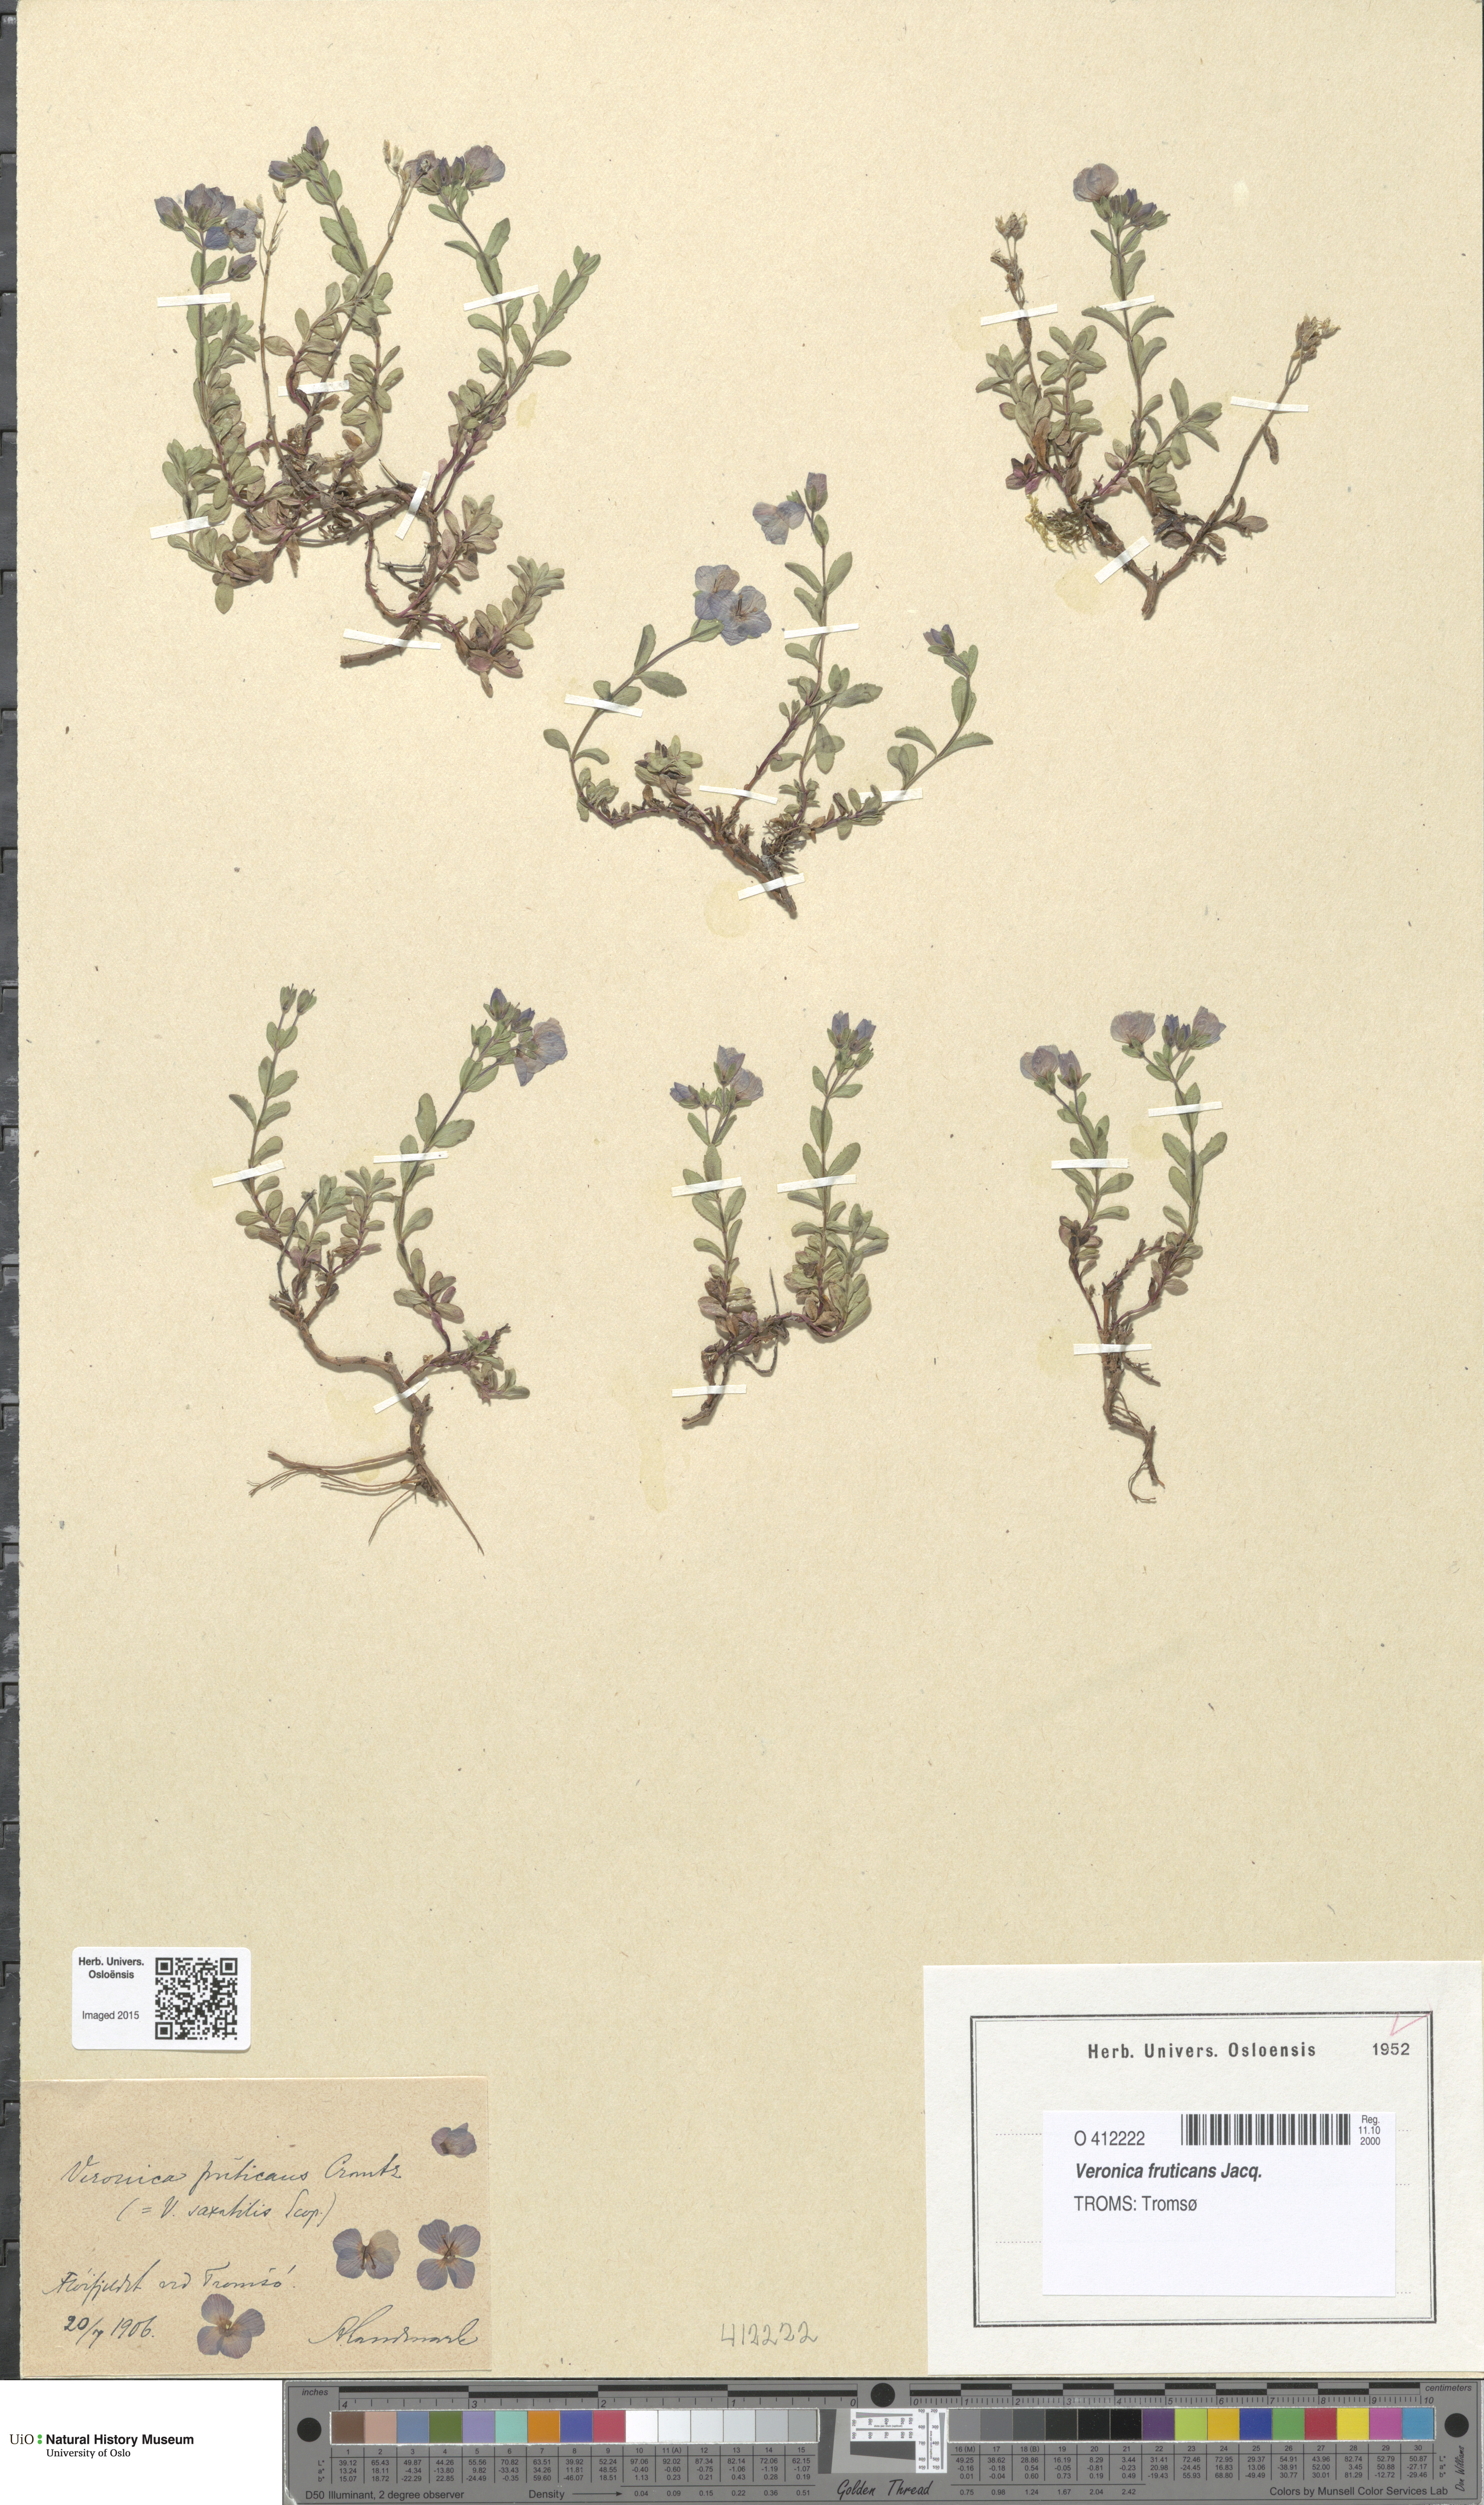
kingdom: Plantae
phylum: Tracheophyta
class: Magnoliopsida
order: Lamiales
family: Plantaginaceae
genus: Veronica
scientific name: Veronica fruticans
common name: Rock speedwell
